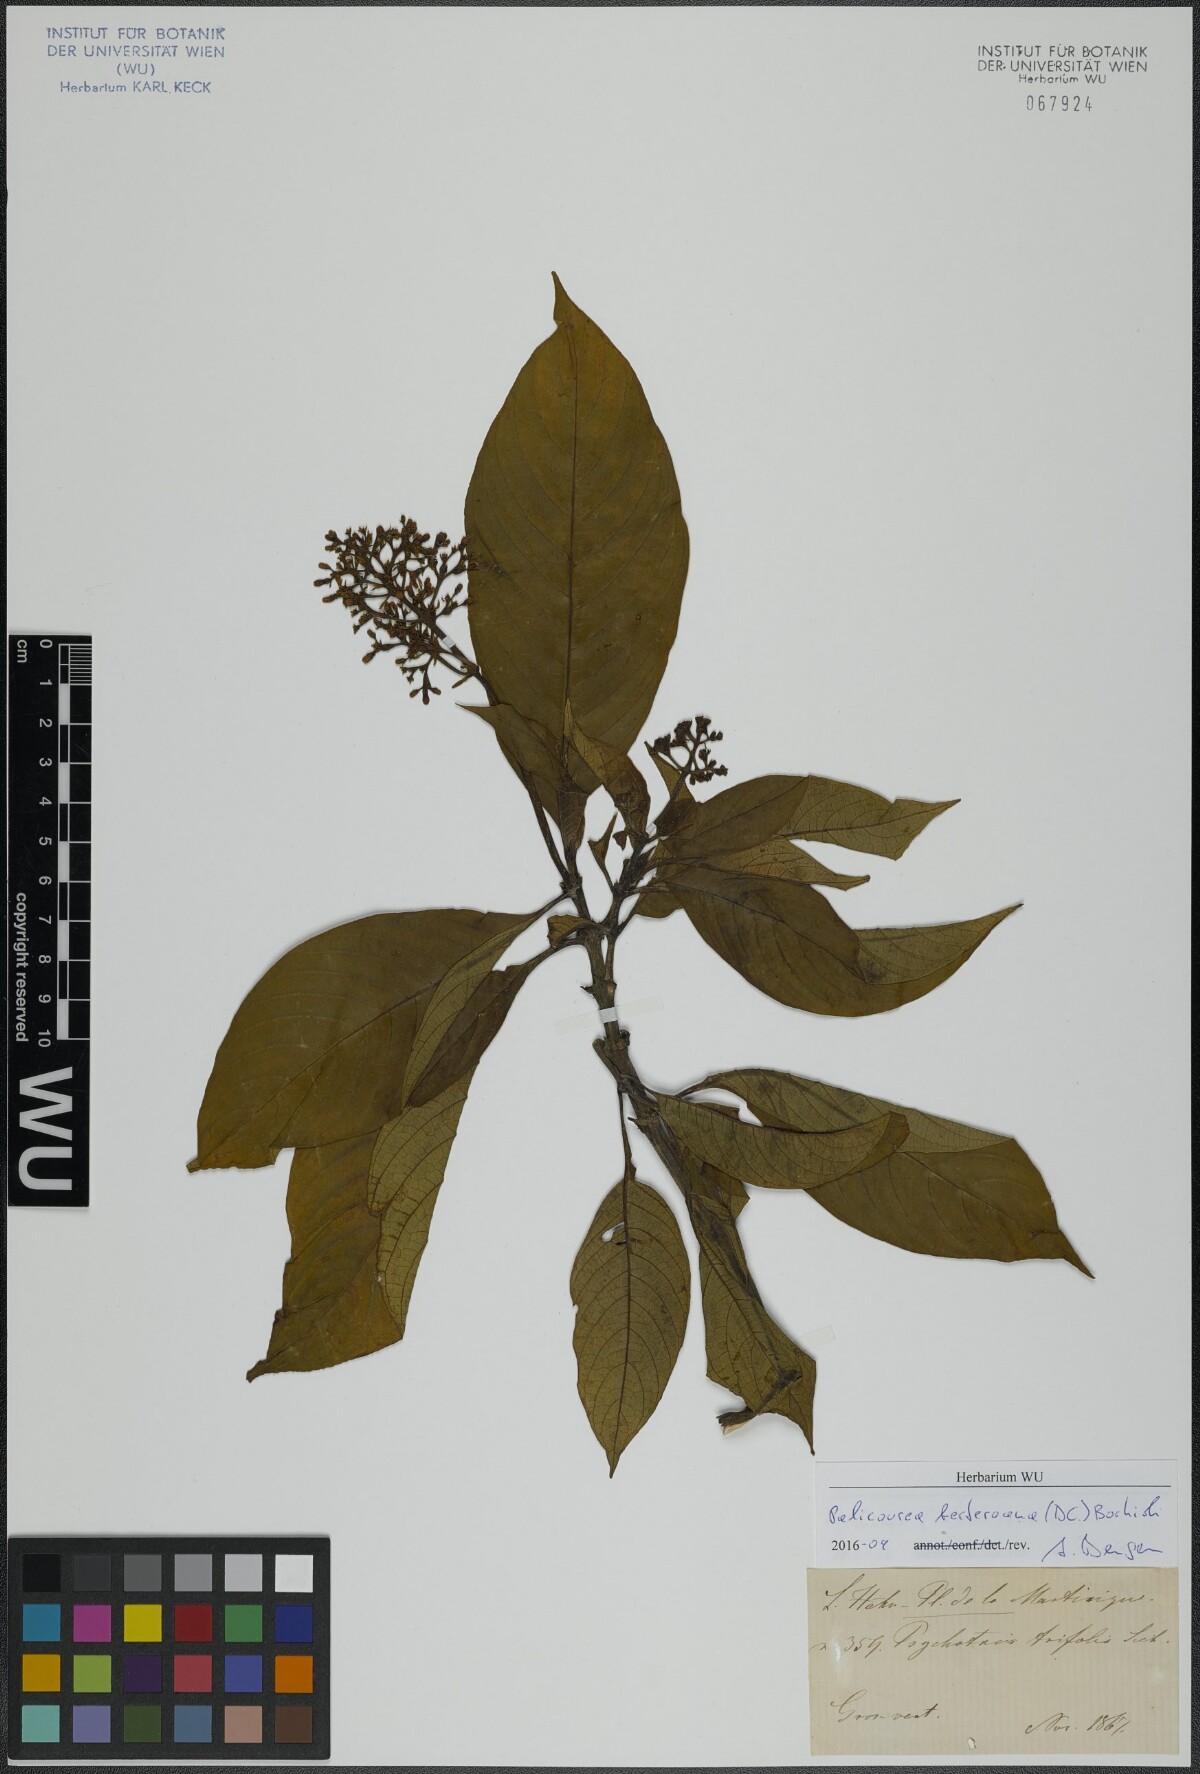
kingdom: Plantae
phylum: Tracheophyta
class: Magnoliopsida
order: Gentianales
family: Rubiaceae
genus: Palicourea
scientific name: Palicourea berteroana
